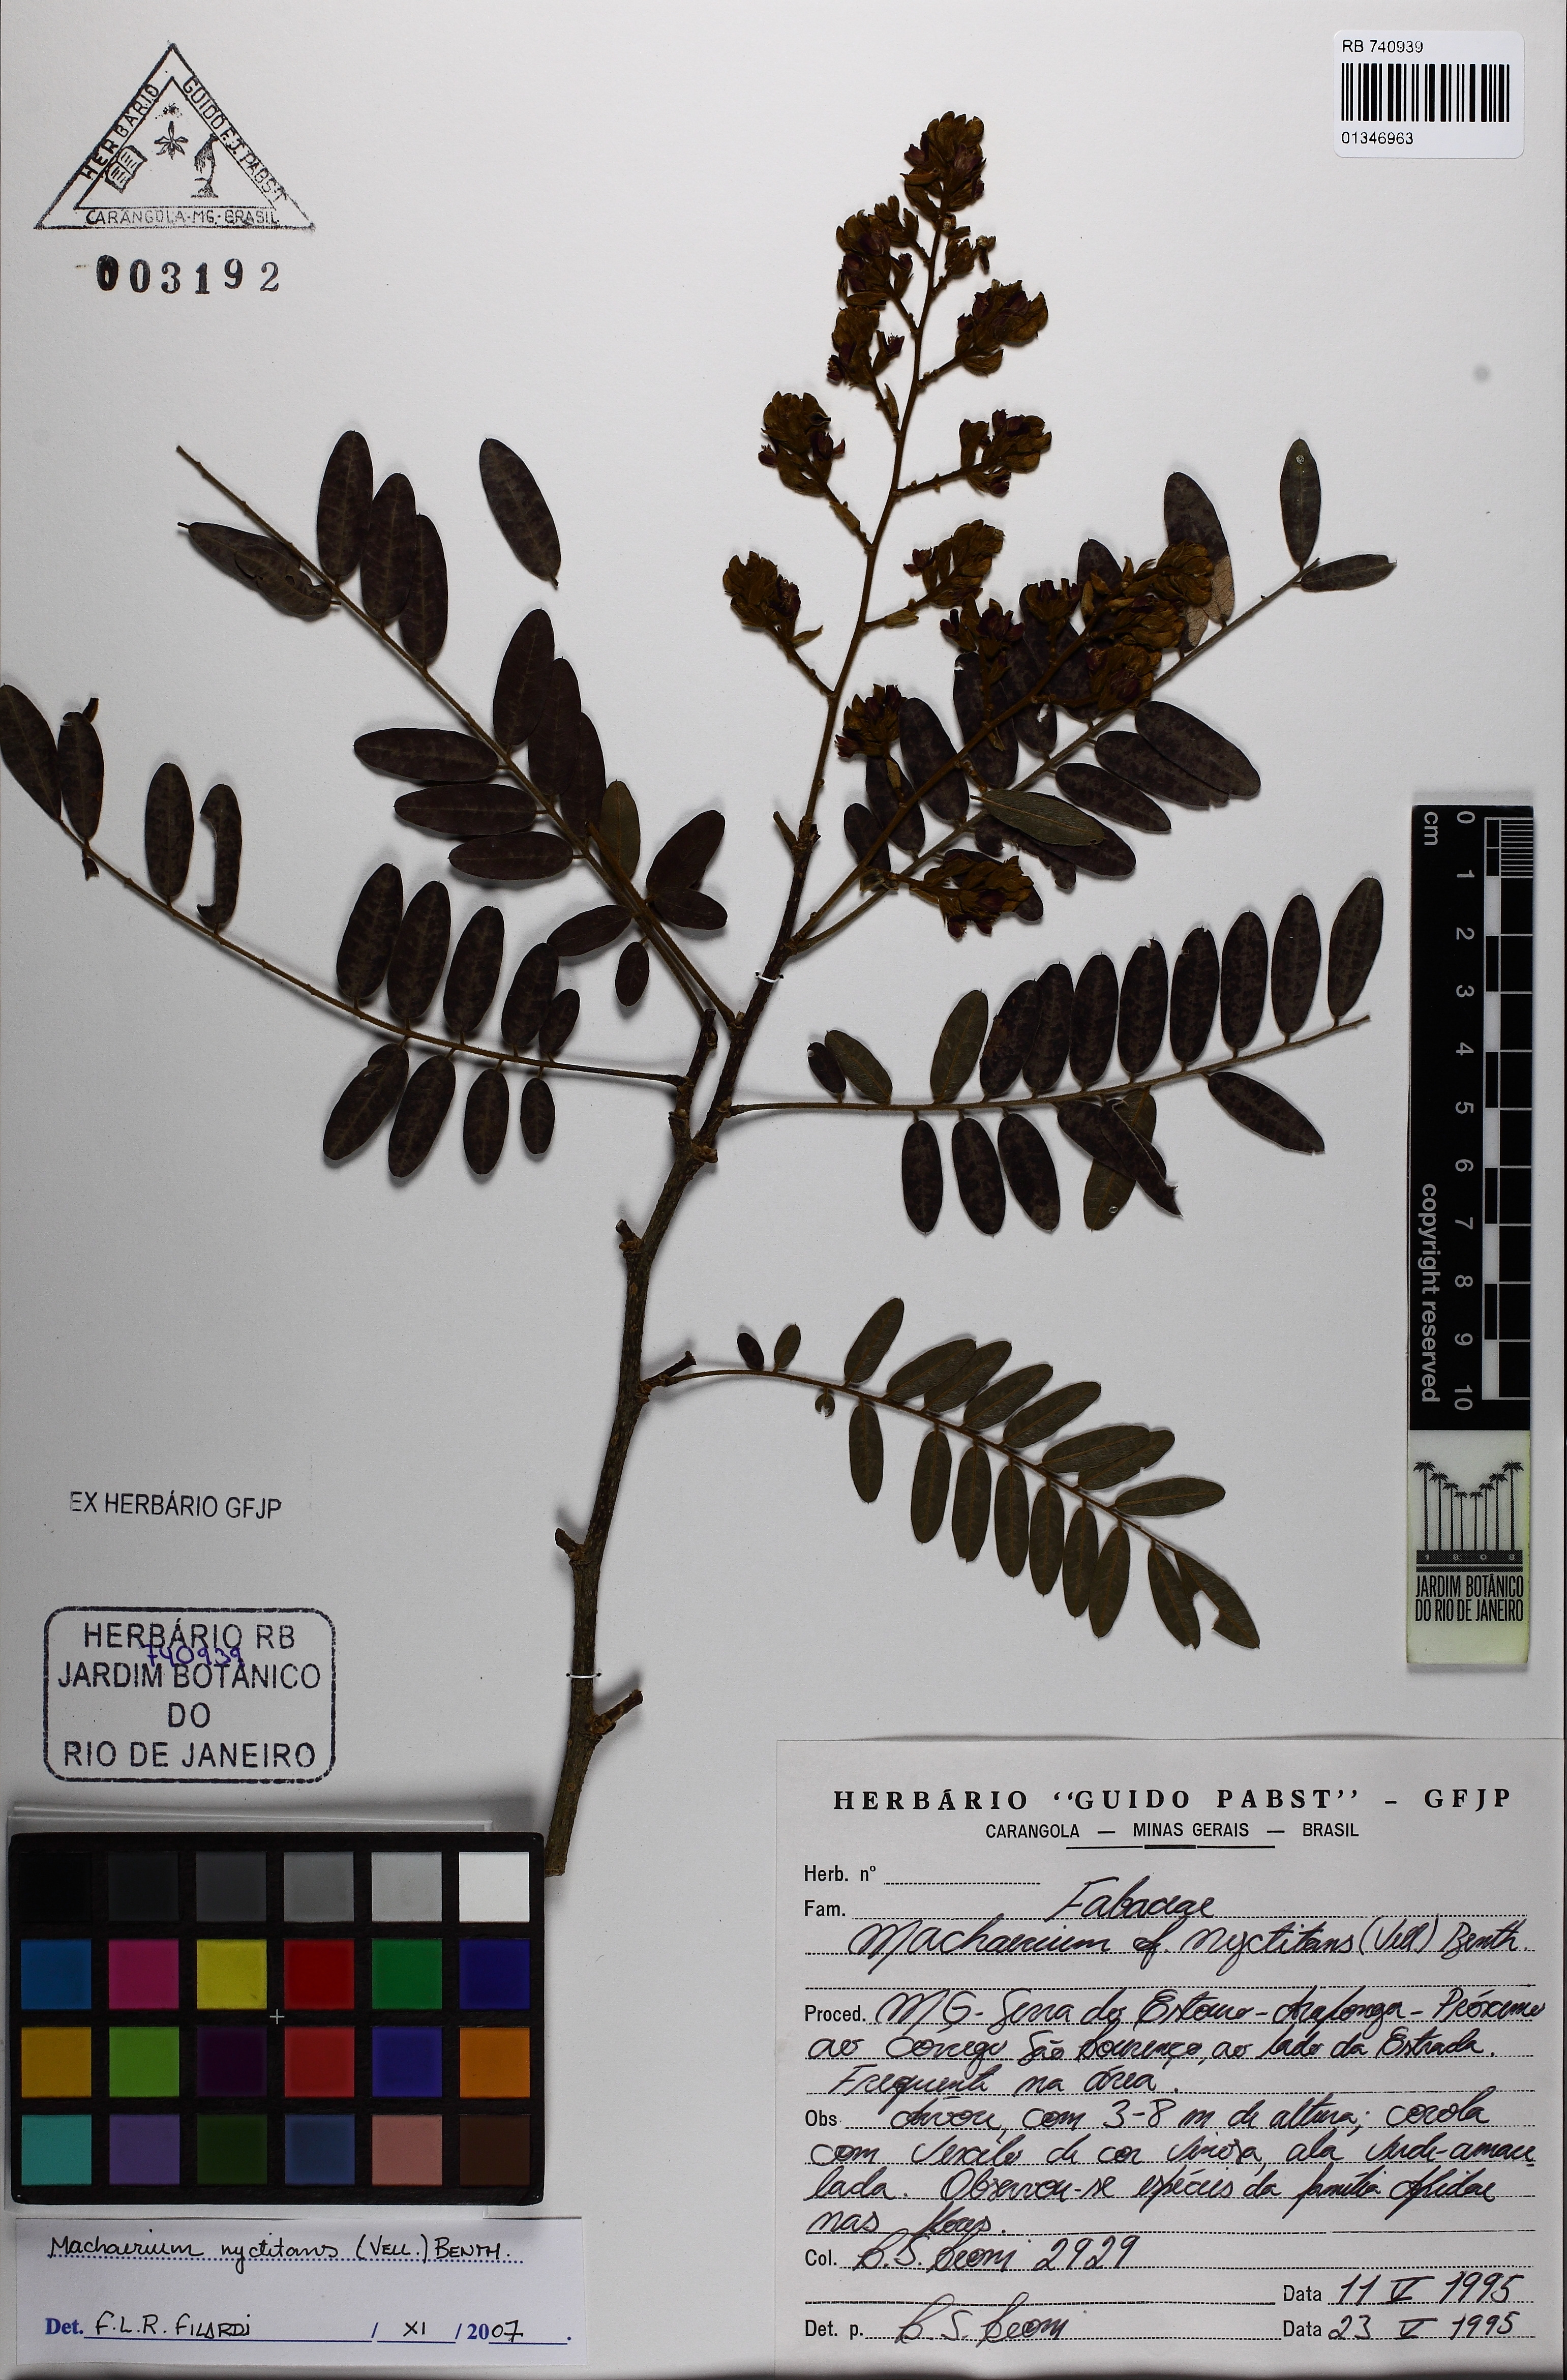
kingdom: Plantae
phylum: Tracheophyta
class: Magnoliopsida
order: Fabales
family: Fabaceae
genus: Machaerium
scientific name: Machaerium nyctitans
